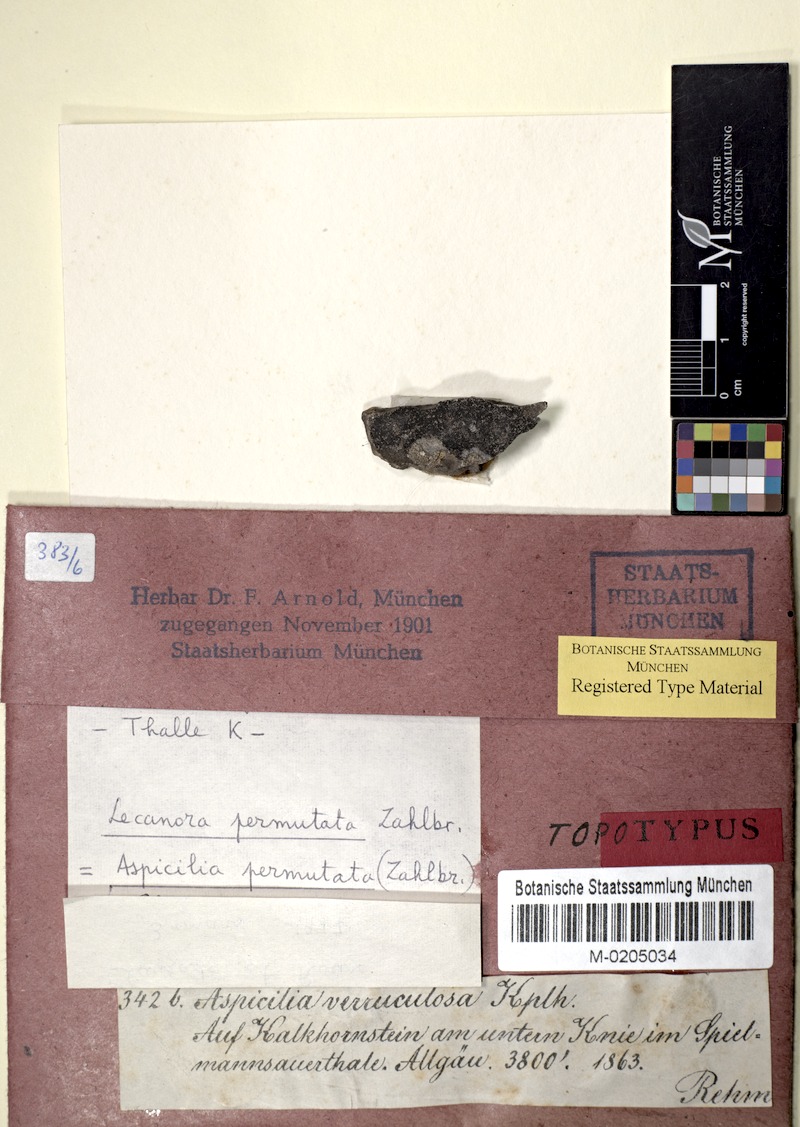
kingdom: Fungi
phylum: Ascomycota
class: Lecanoromycetes
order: Pertusariales
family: Megasporaceae
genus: Oxneriaria
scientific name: Oxneriaria verruculosa
